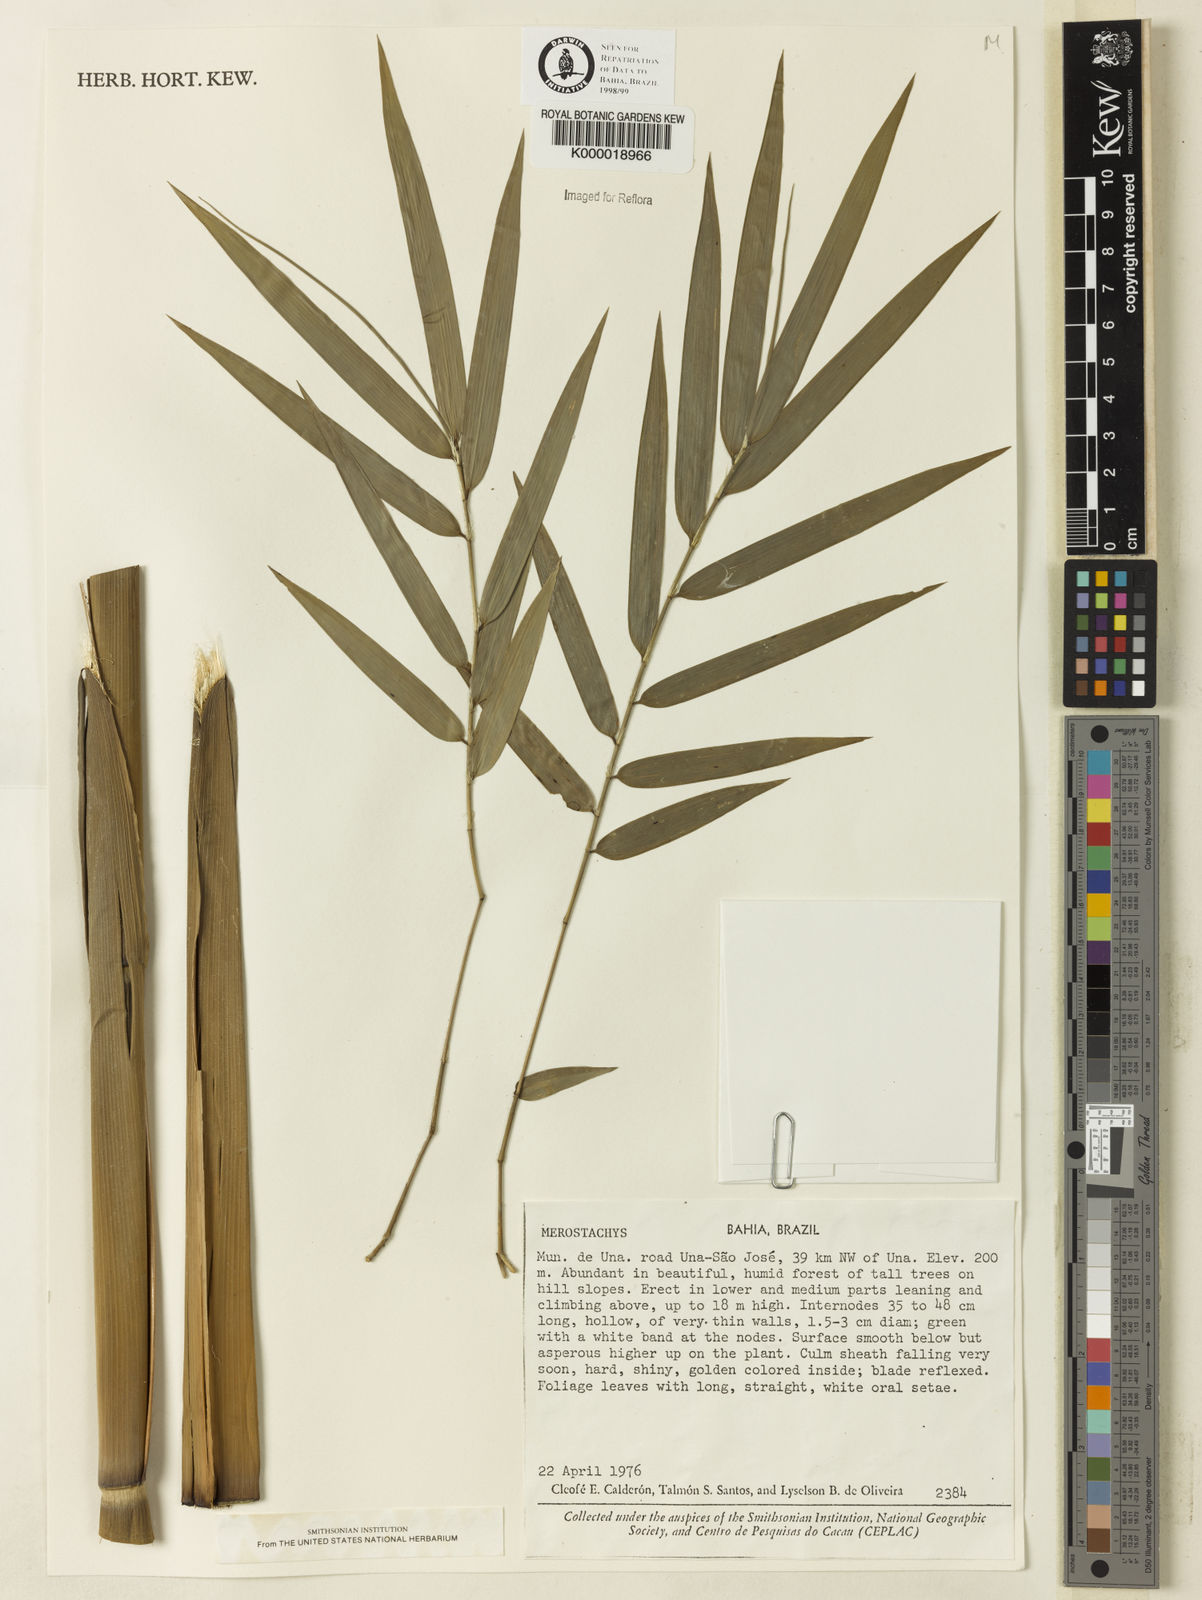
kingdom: Plantae
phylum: Tracheophyta
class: Liliopsida
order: Poales
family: Poaceae
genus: Merostachys
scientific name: Merostachys
